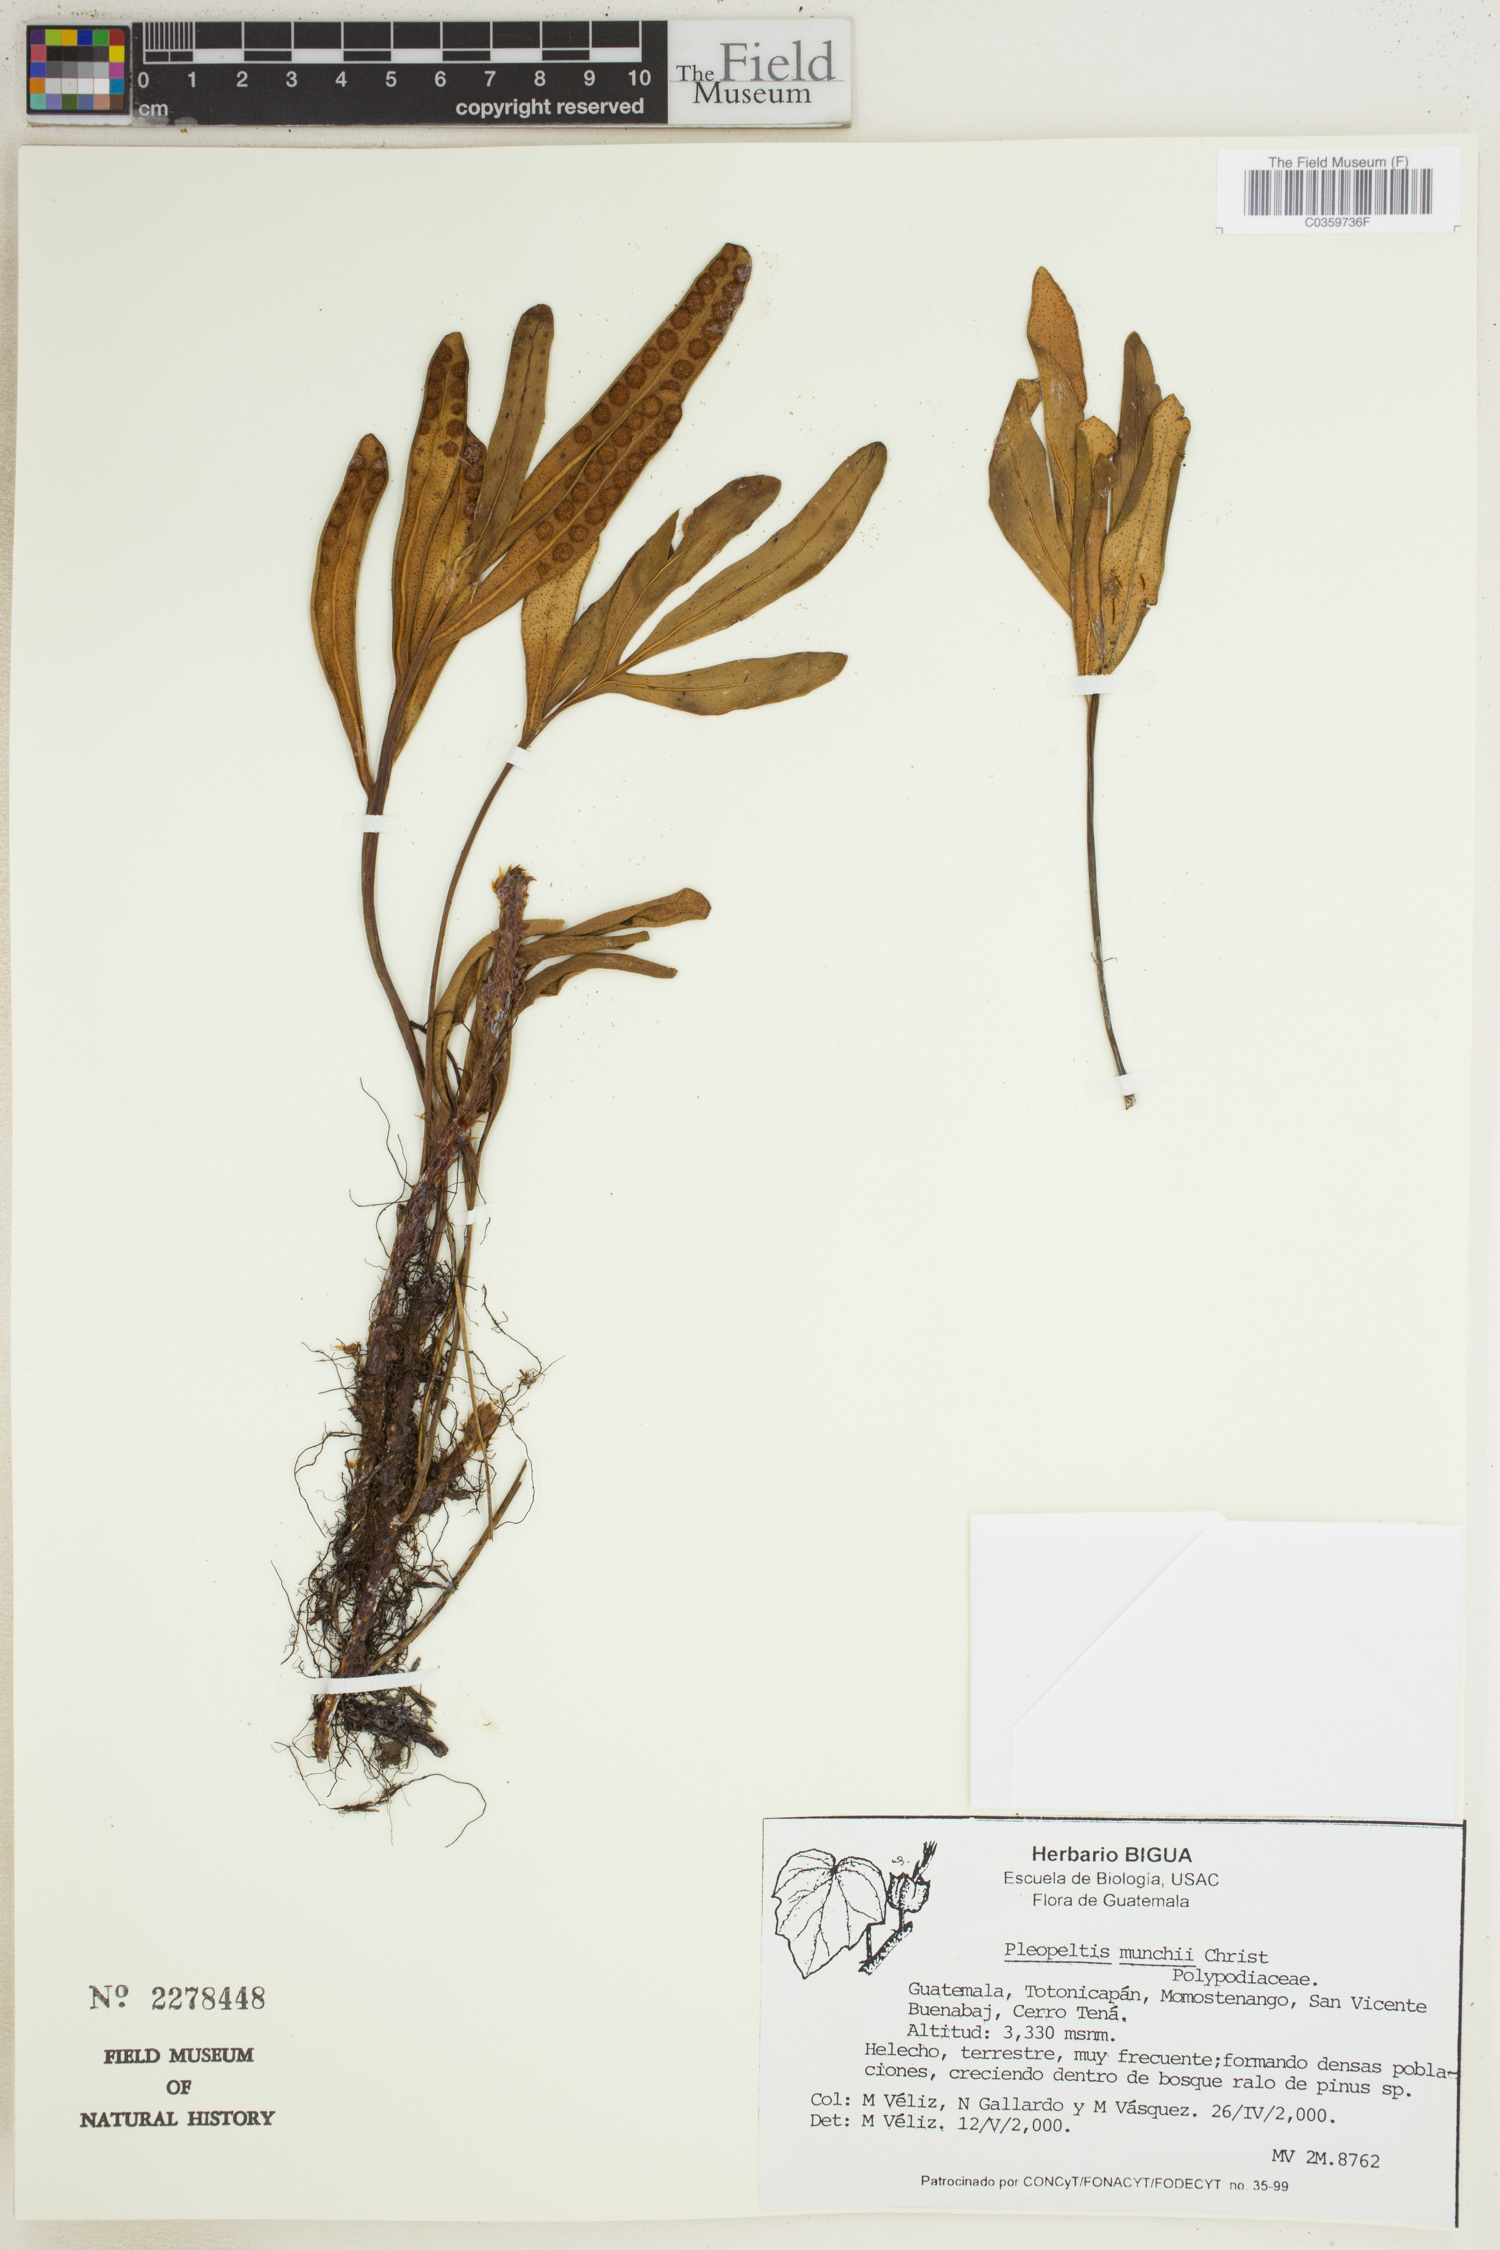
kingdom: Plantae
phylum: Tracheophyta
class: Polypodiopsida
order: Polypodiales
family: Polypodiaceae
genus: Pleopeltis
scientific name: Pleopeltis muenchii
